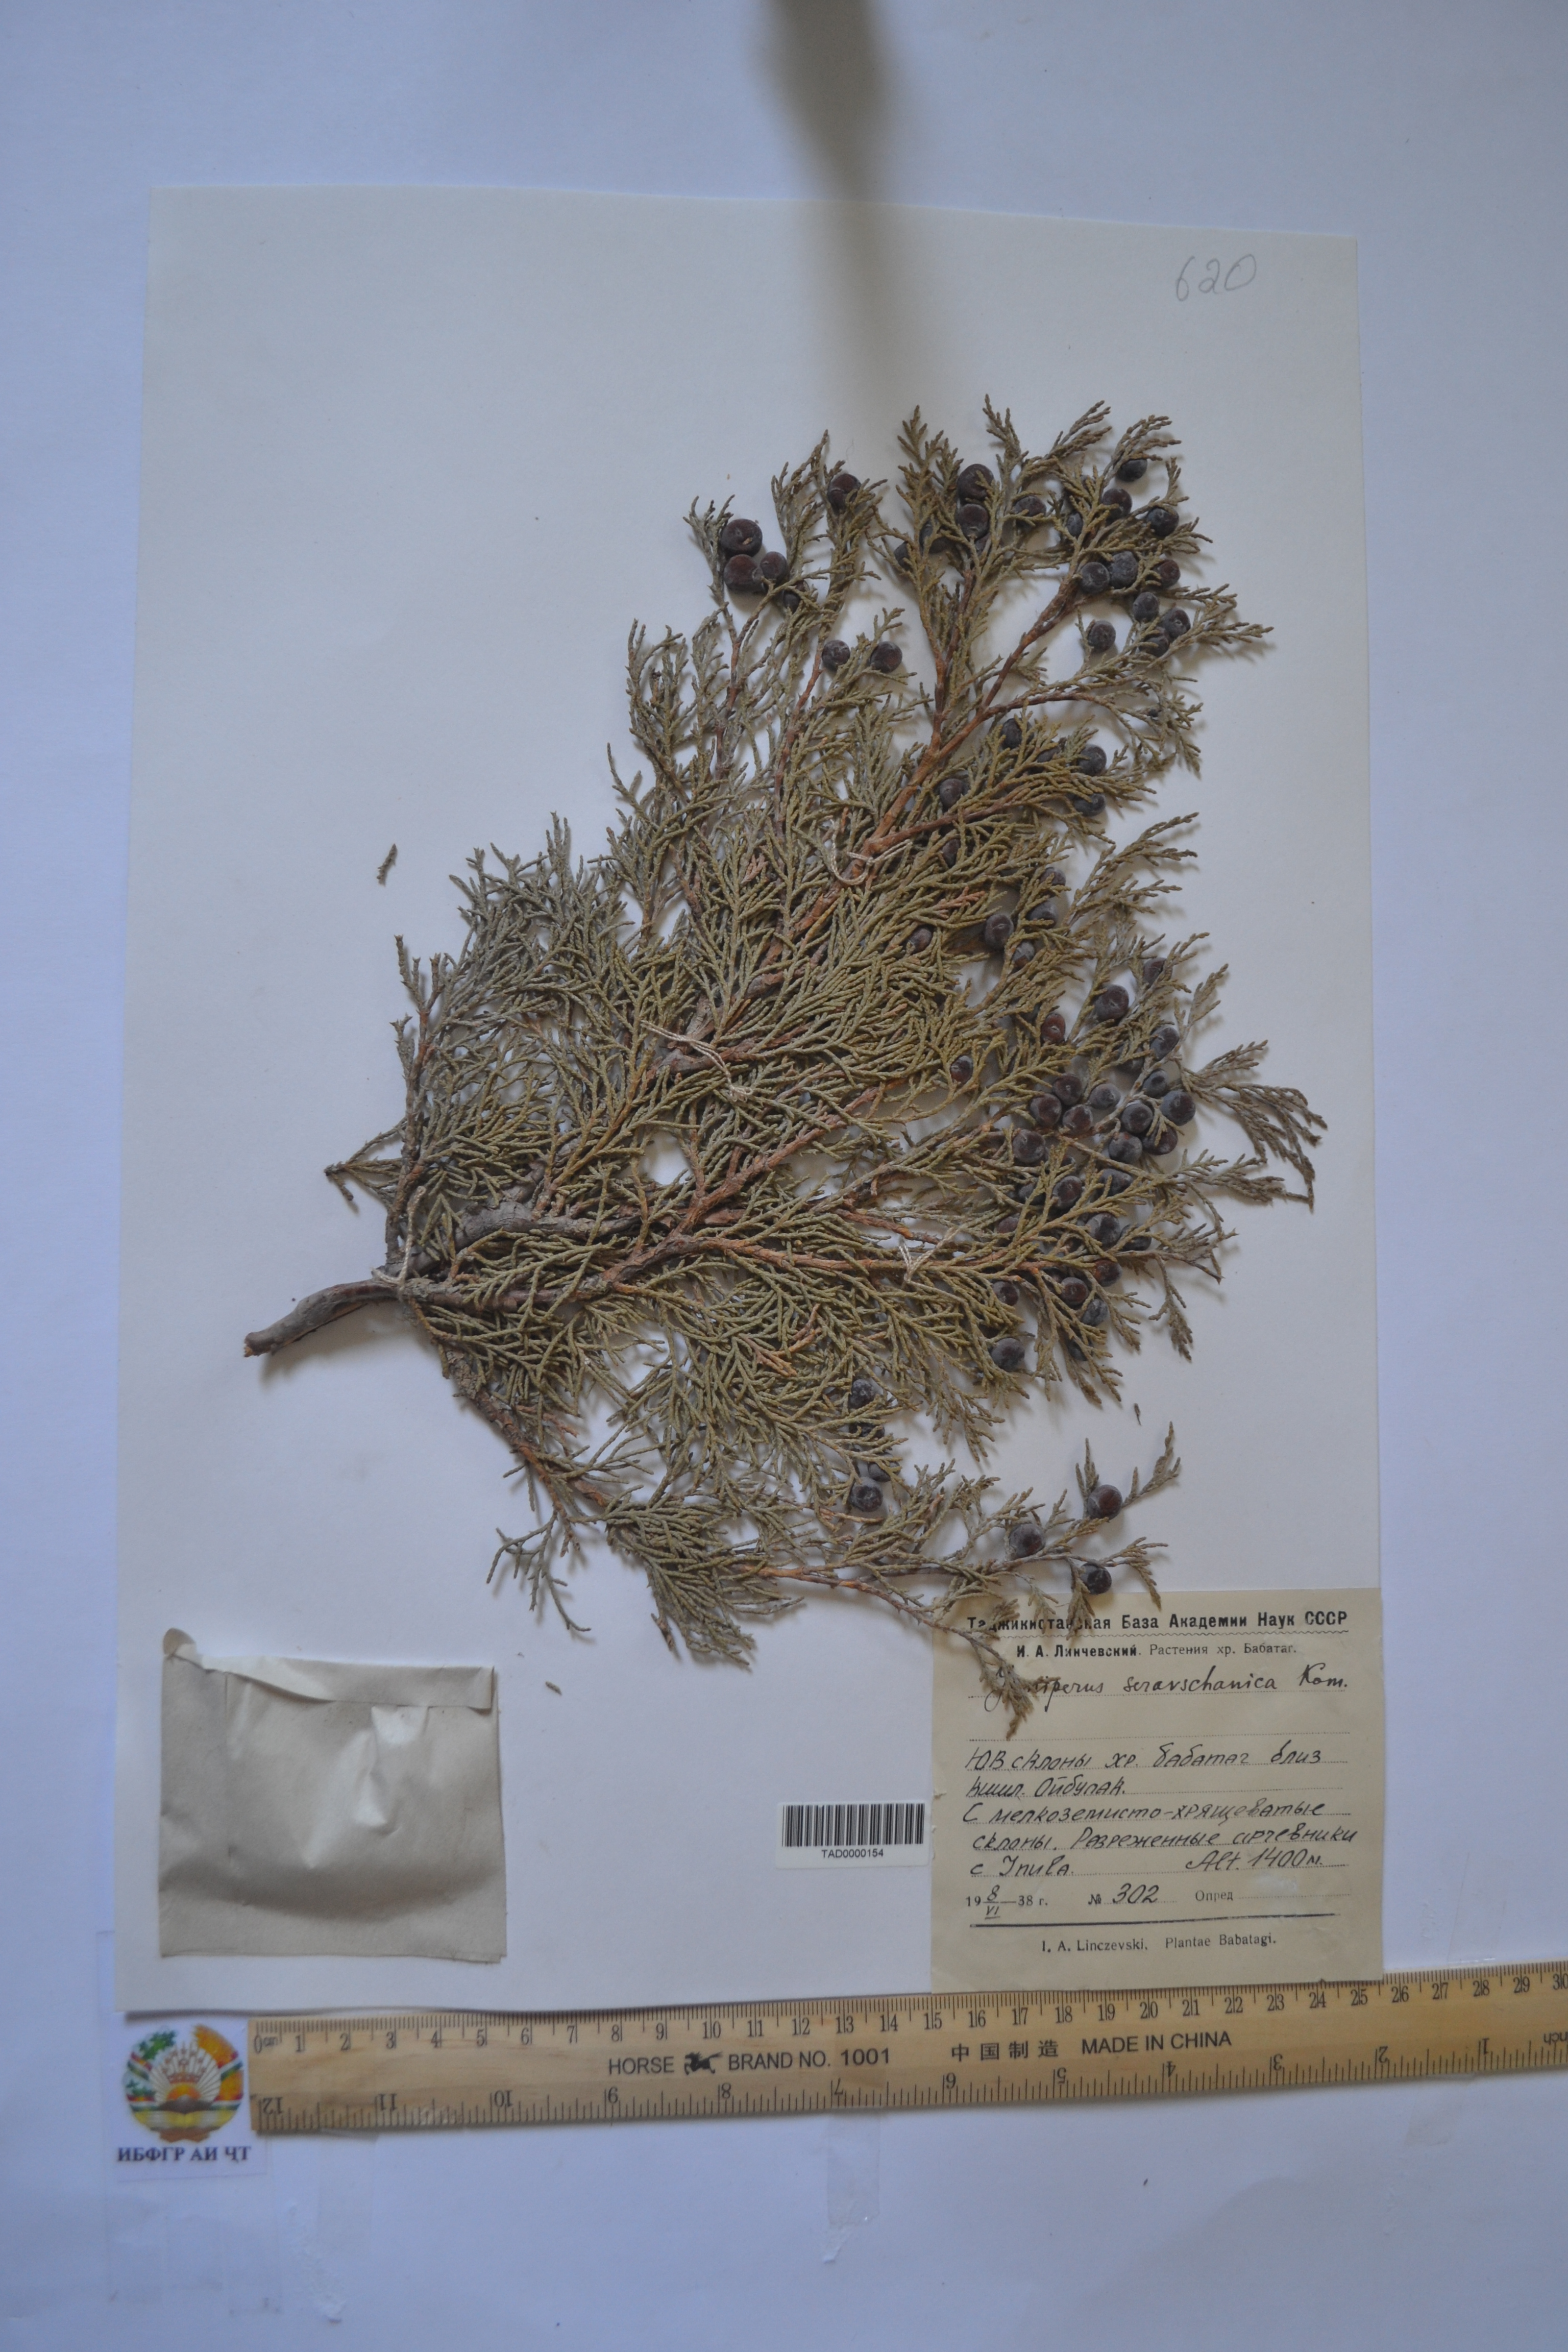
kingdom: Plantae
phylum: Tracheophyta
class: Pinopsida
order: Pinales
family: Cupressaceae
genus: Juniperus
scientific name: Juniperus excelsa
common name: Crimean juniper
